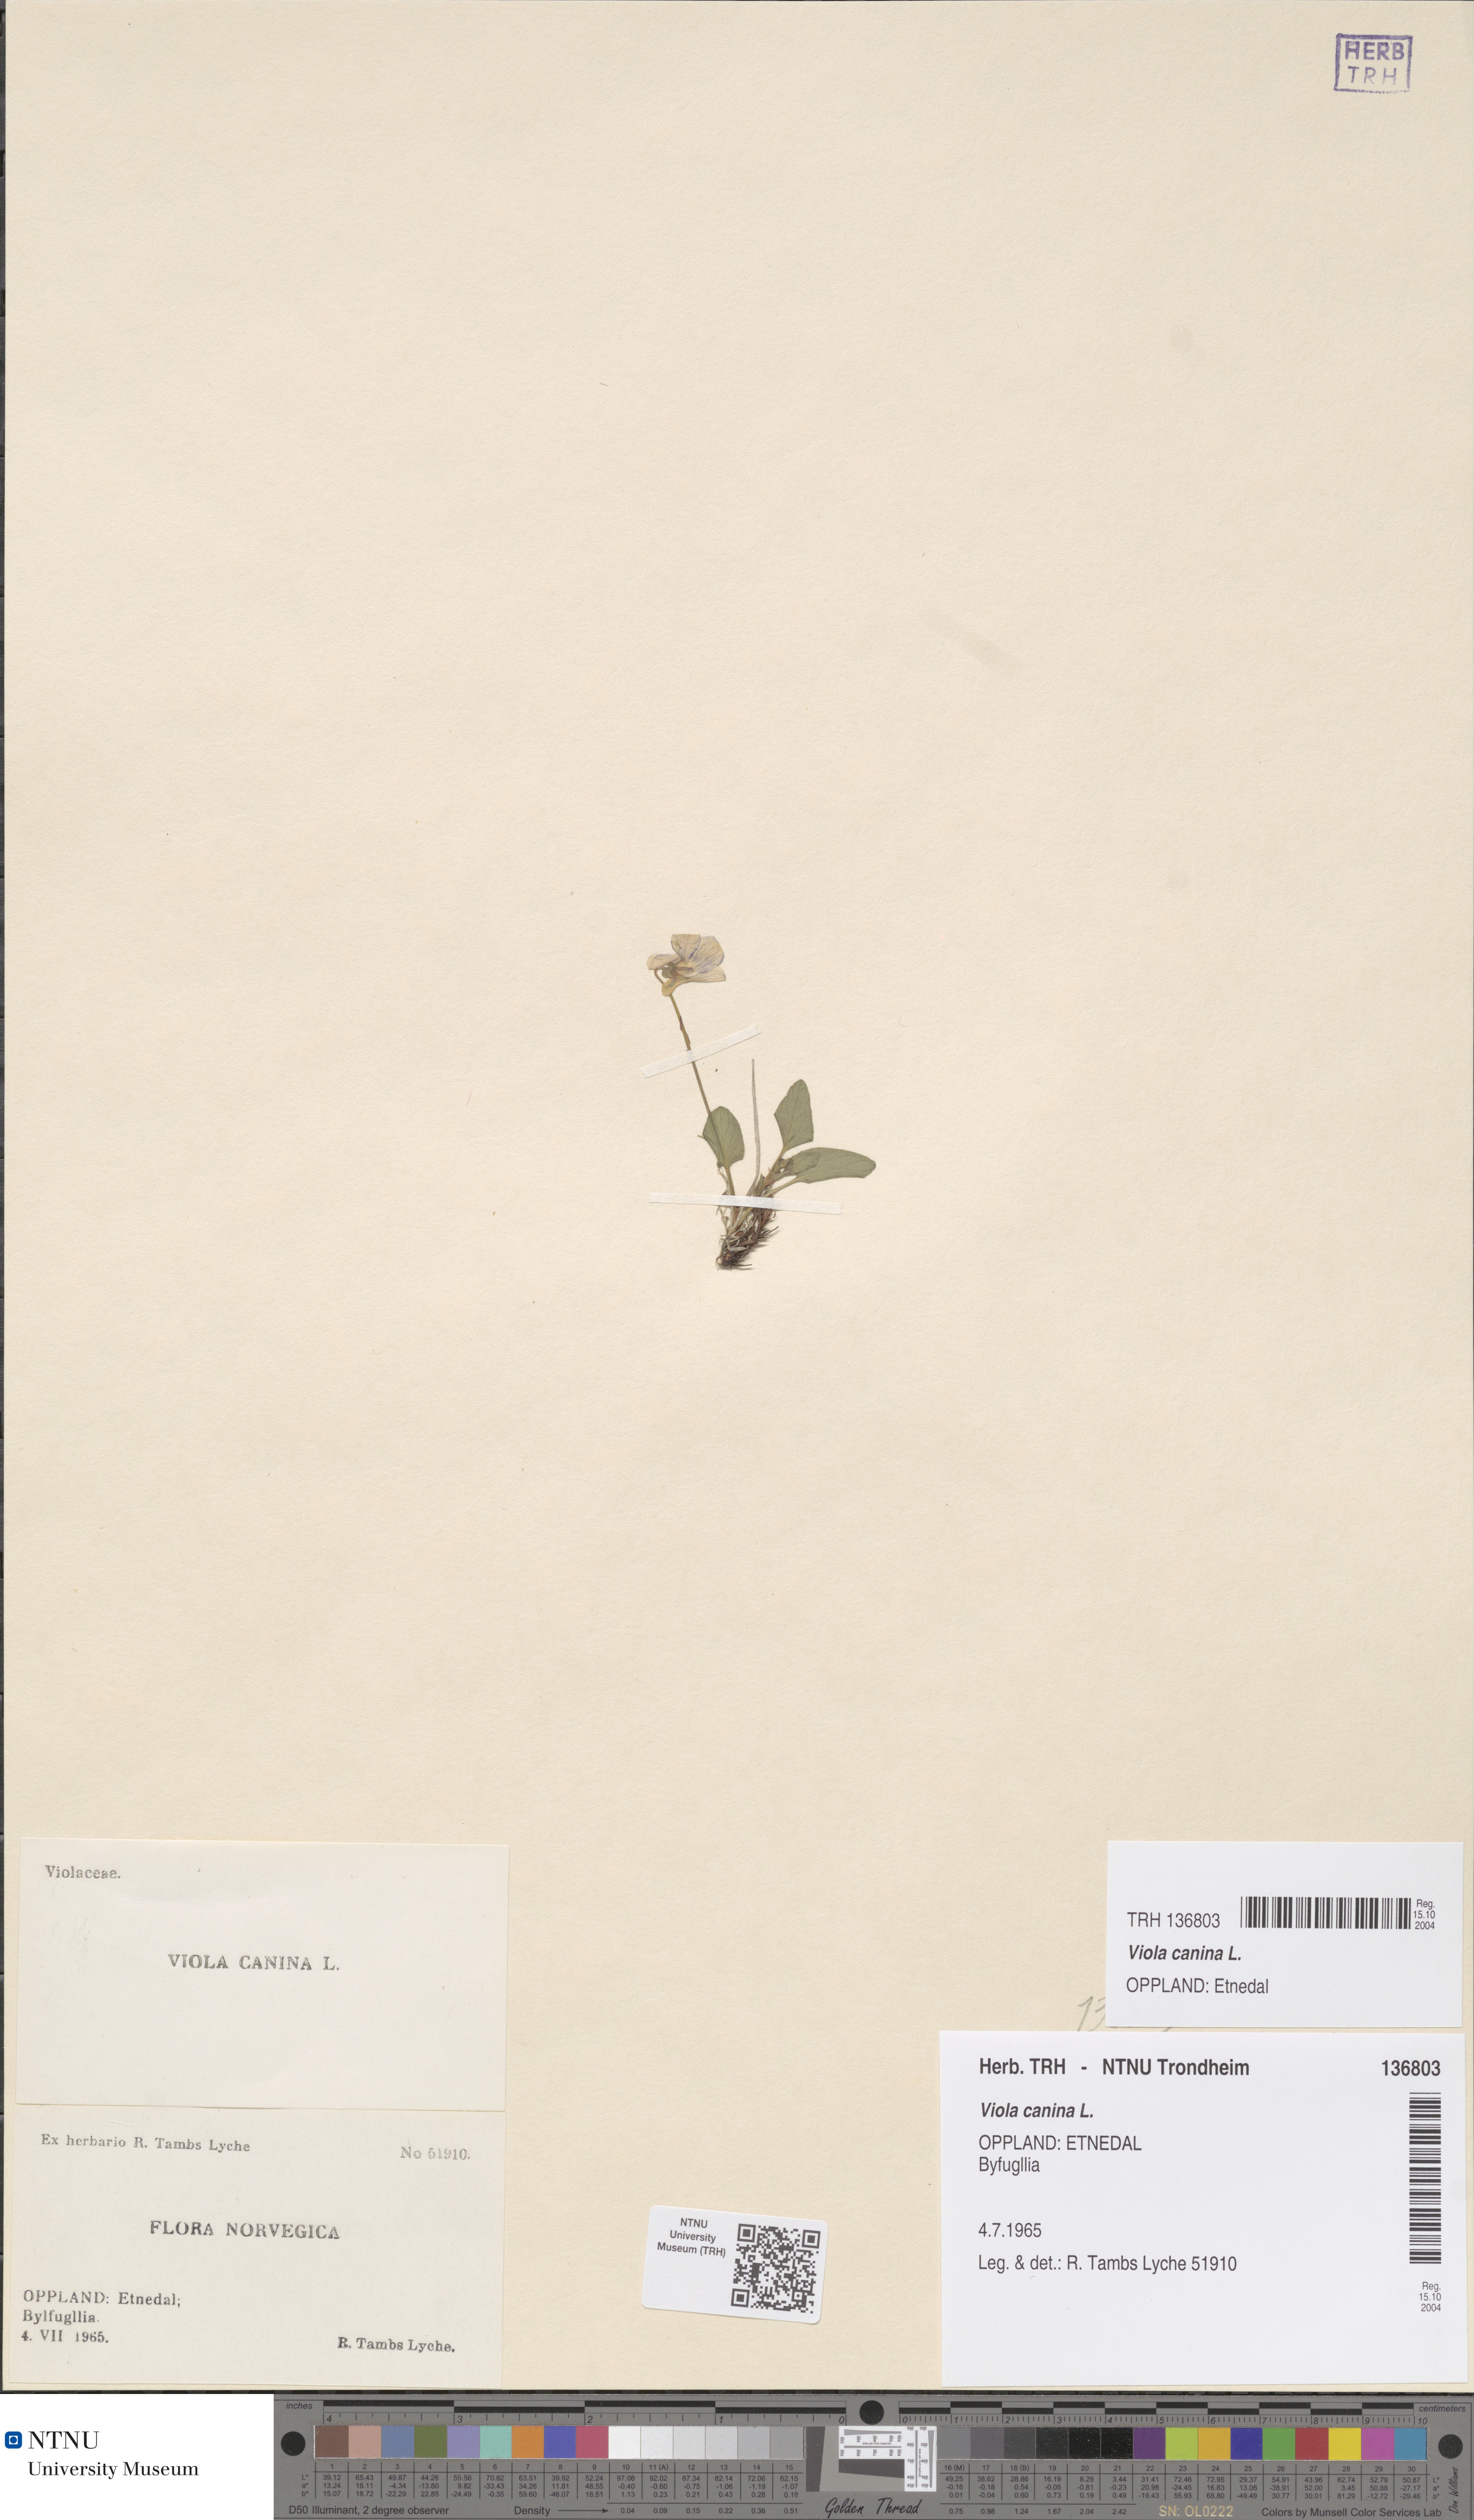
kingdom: Plantae
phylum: Tracheophyta
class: Magnoliopsida
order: Malpighiales
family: Violaceae
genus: Viola
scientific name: Viola canina
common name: Heath dog-violet
